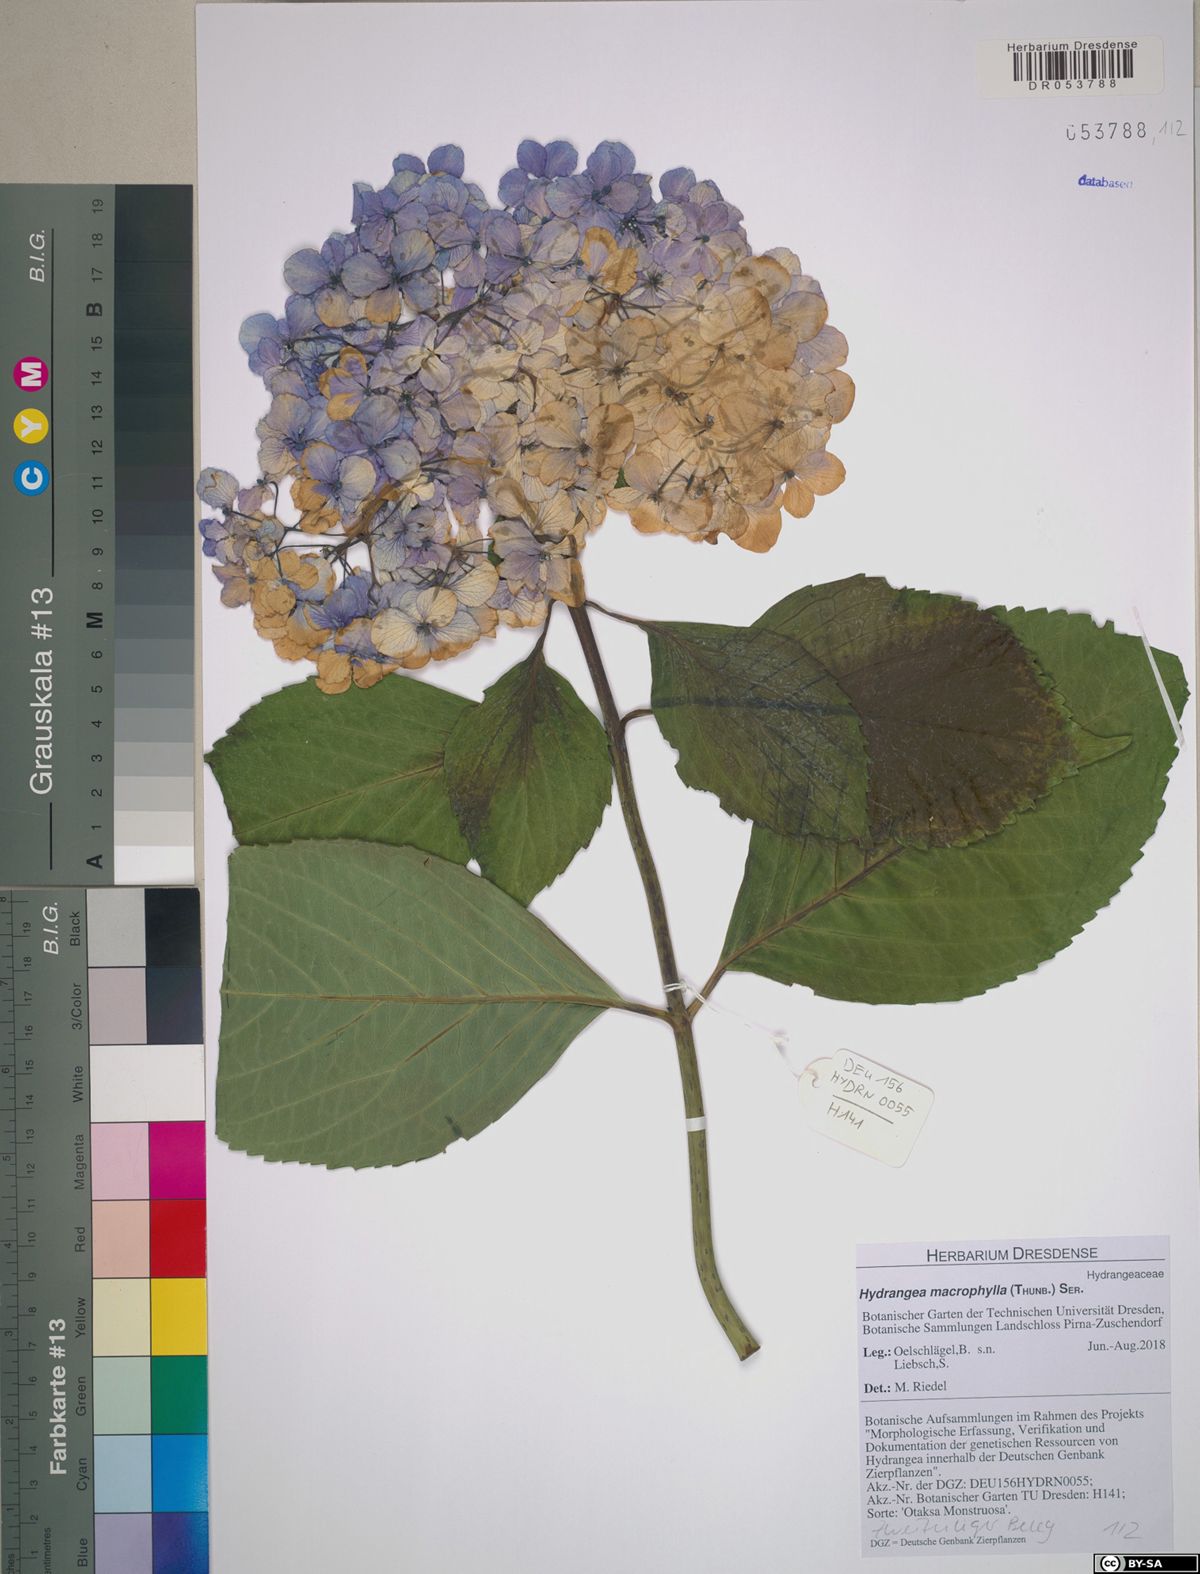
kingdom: Plantae
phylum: Tracheophyta
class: Magnoliopsida
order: Cornales
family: Hydrangeaceae
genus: Hydrangea
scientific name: Hydrangea macrophylla
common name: Hydrangea
